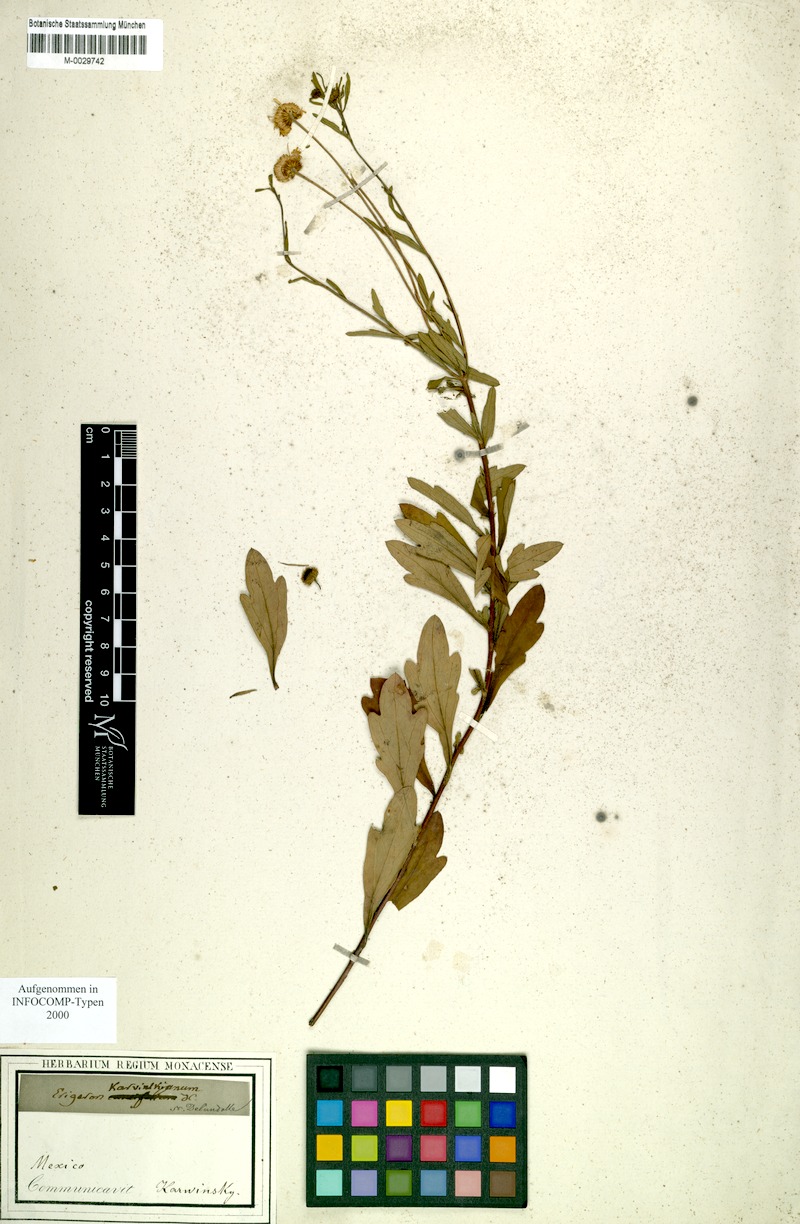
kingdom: Plantae
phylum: Tracheophyta
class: Magnoliopsida
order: Asterales
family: Asteraceae
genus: Erigeron
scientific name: Erigeron karvinskianus
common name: Mexican fleabane
